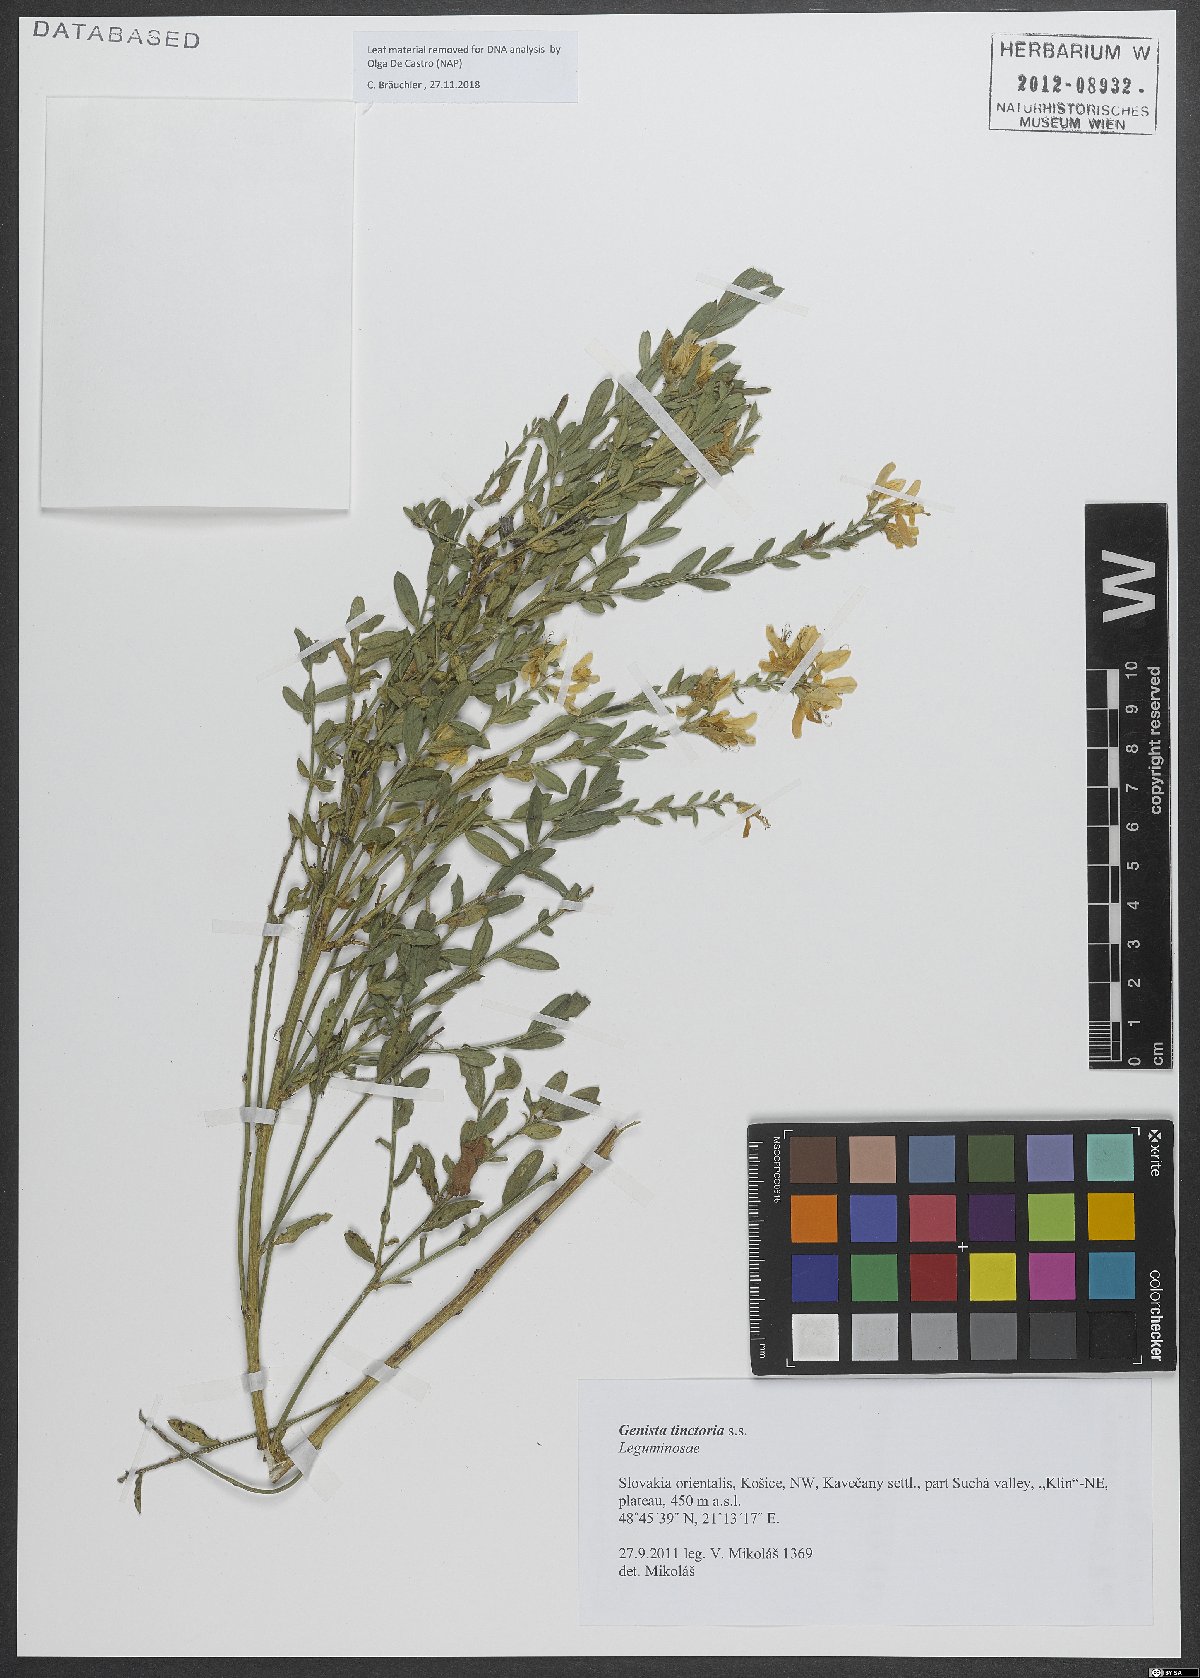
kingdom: Plantae
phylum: Tracheophyta
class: Magnoliopsida
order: Fabales
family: Fabaceae
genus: Genista
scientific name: Genista tinctoria
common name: Dyer's greenweed
